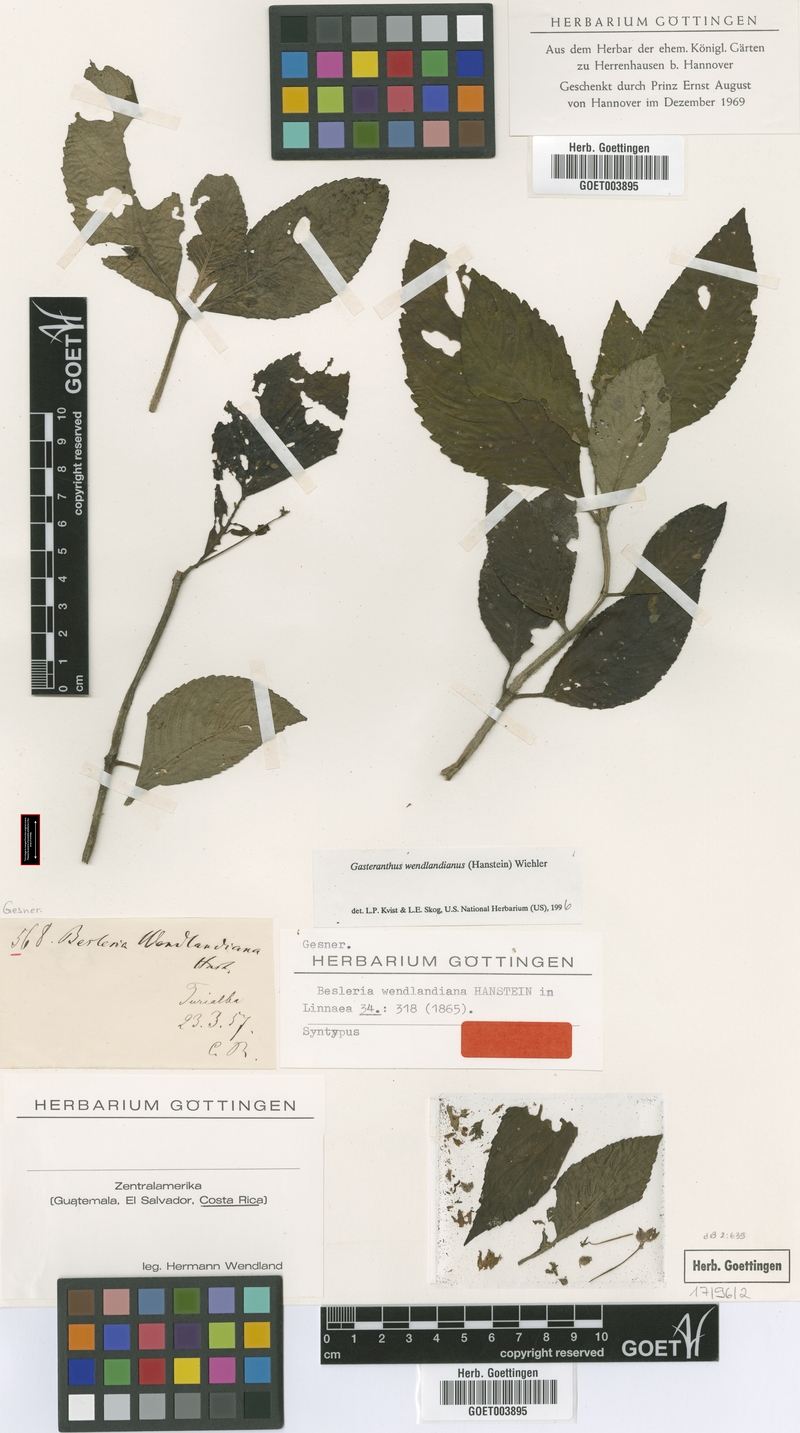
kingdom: Plantae
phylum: Tracheophyta
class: Magnoliopsida
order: Lamiales
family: Gesneriaceae
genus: Gasteranthus
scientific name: Gasteranthus wendlandianus
